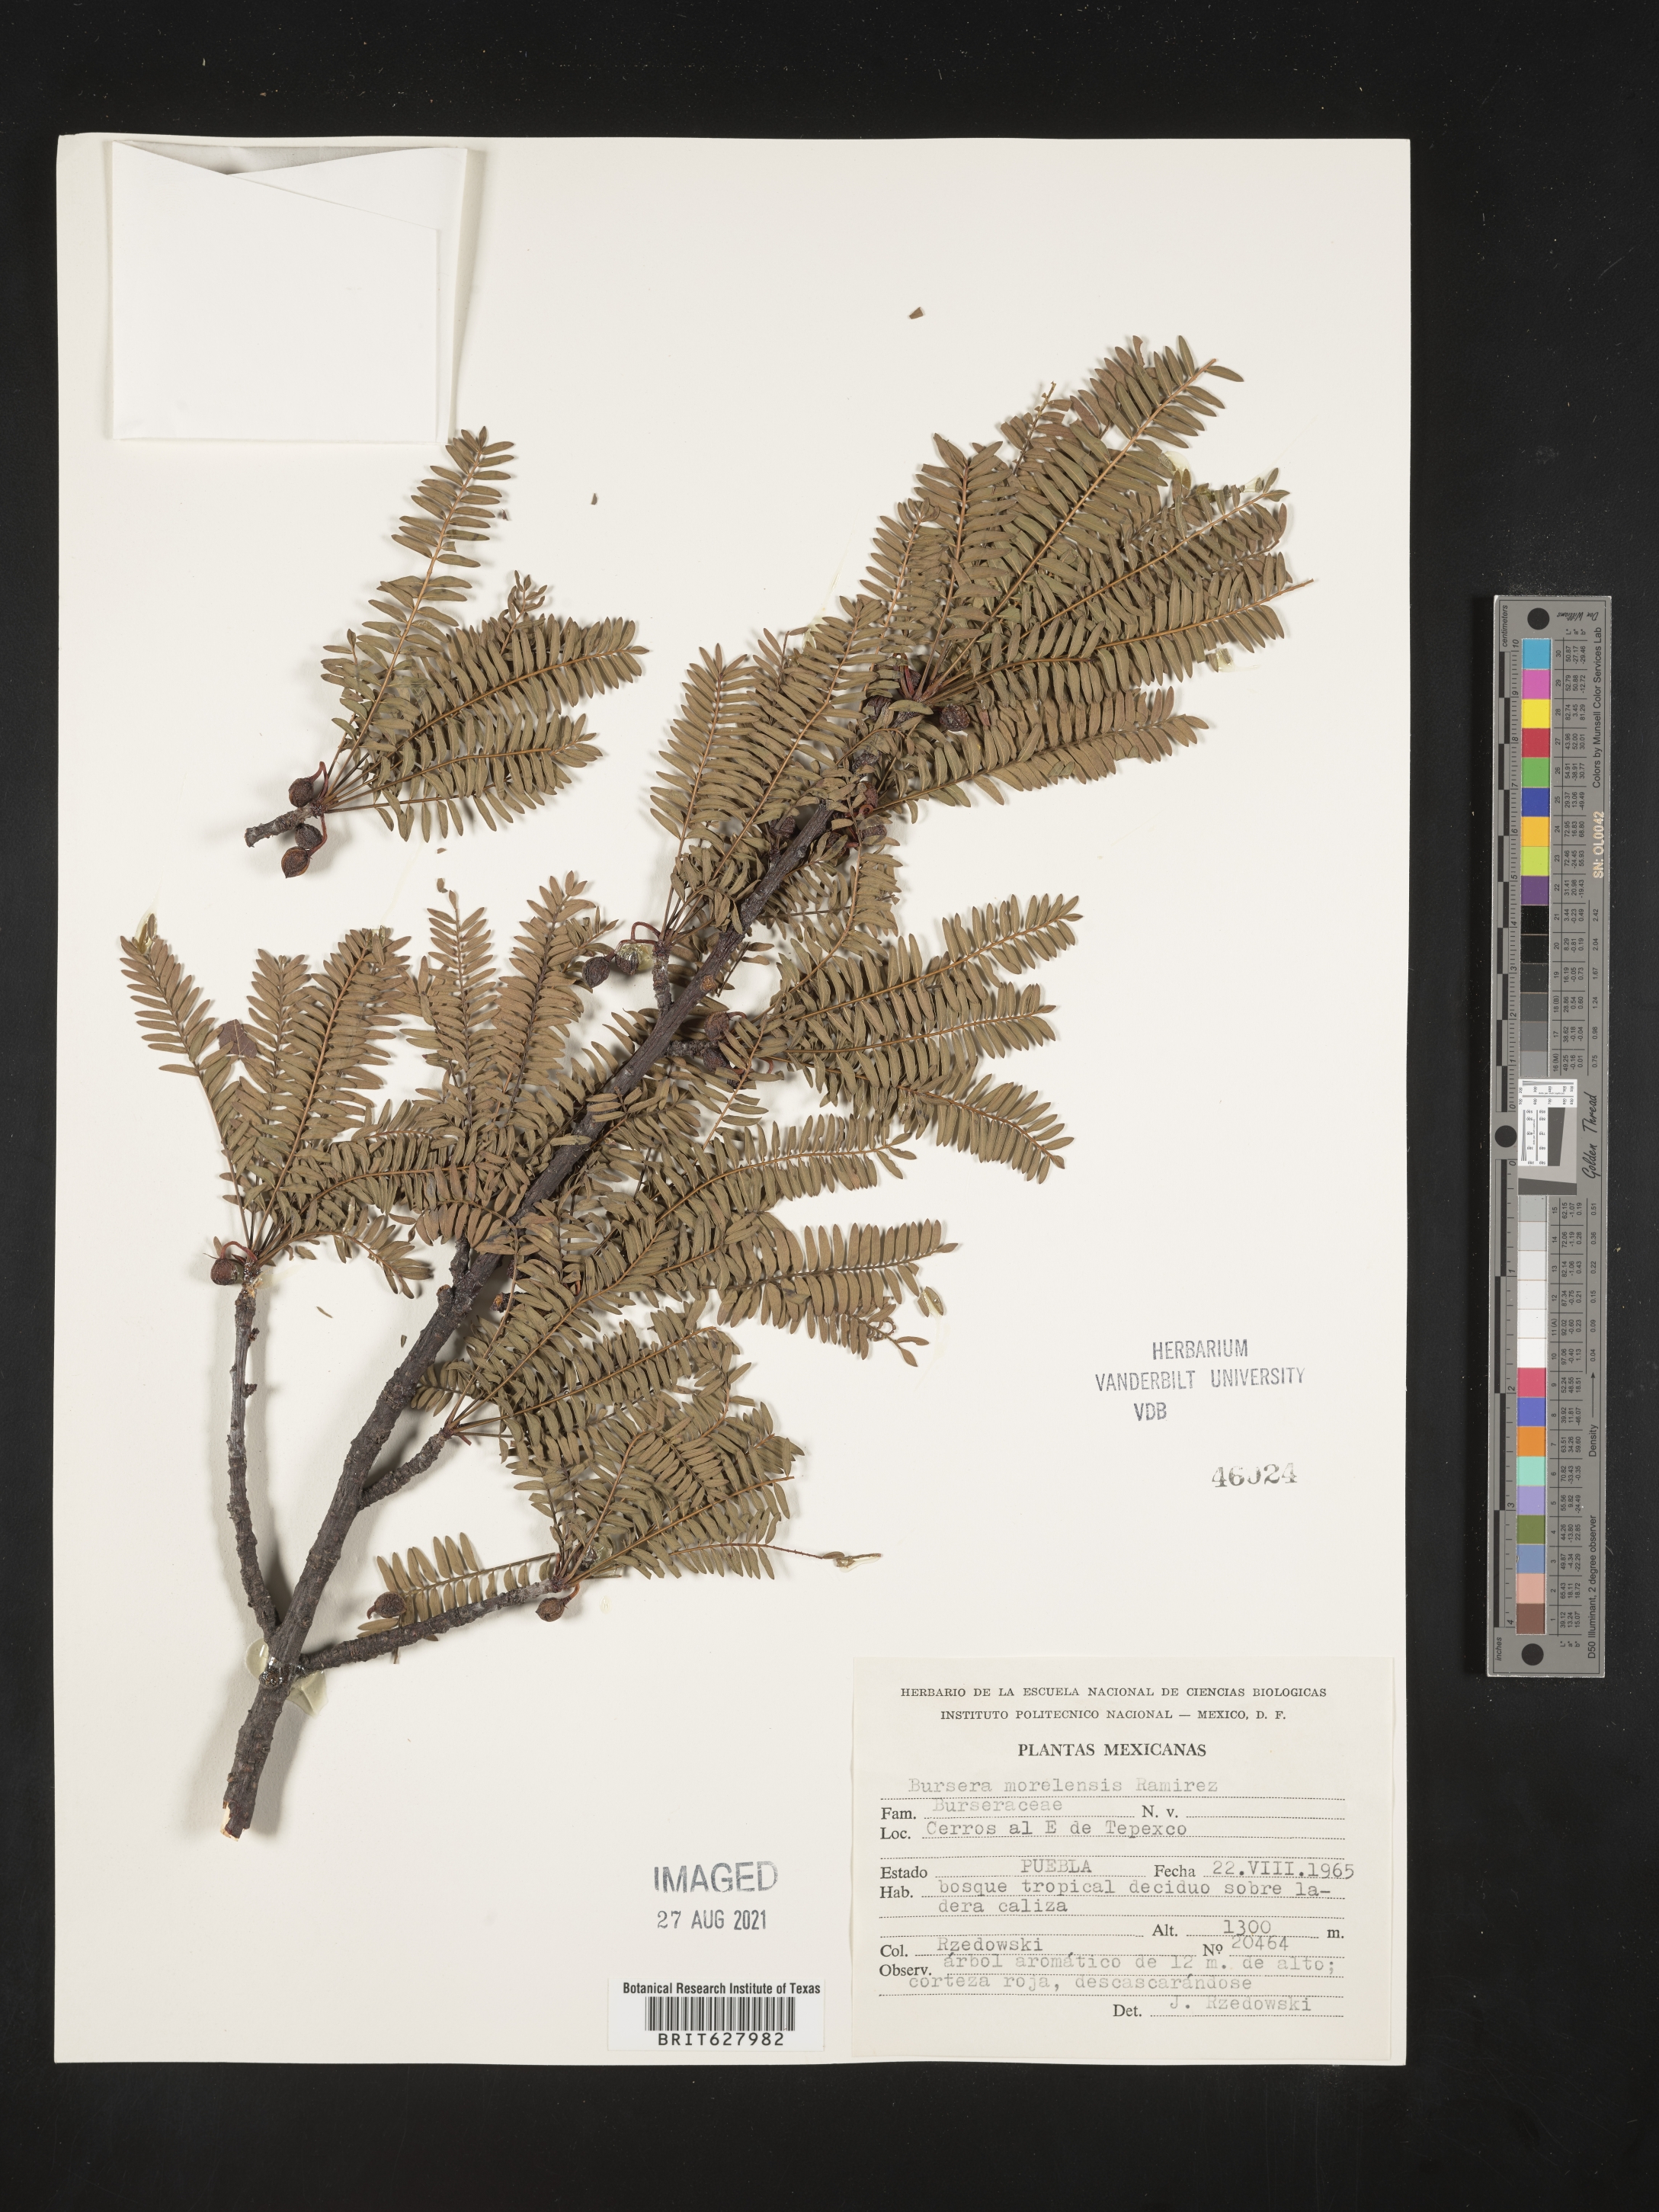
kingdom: Plantae
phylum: Tracheophyta
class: Magnoliopsida
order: Sapindales
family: Burseraceae
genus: Bursera
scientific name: Bursera
